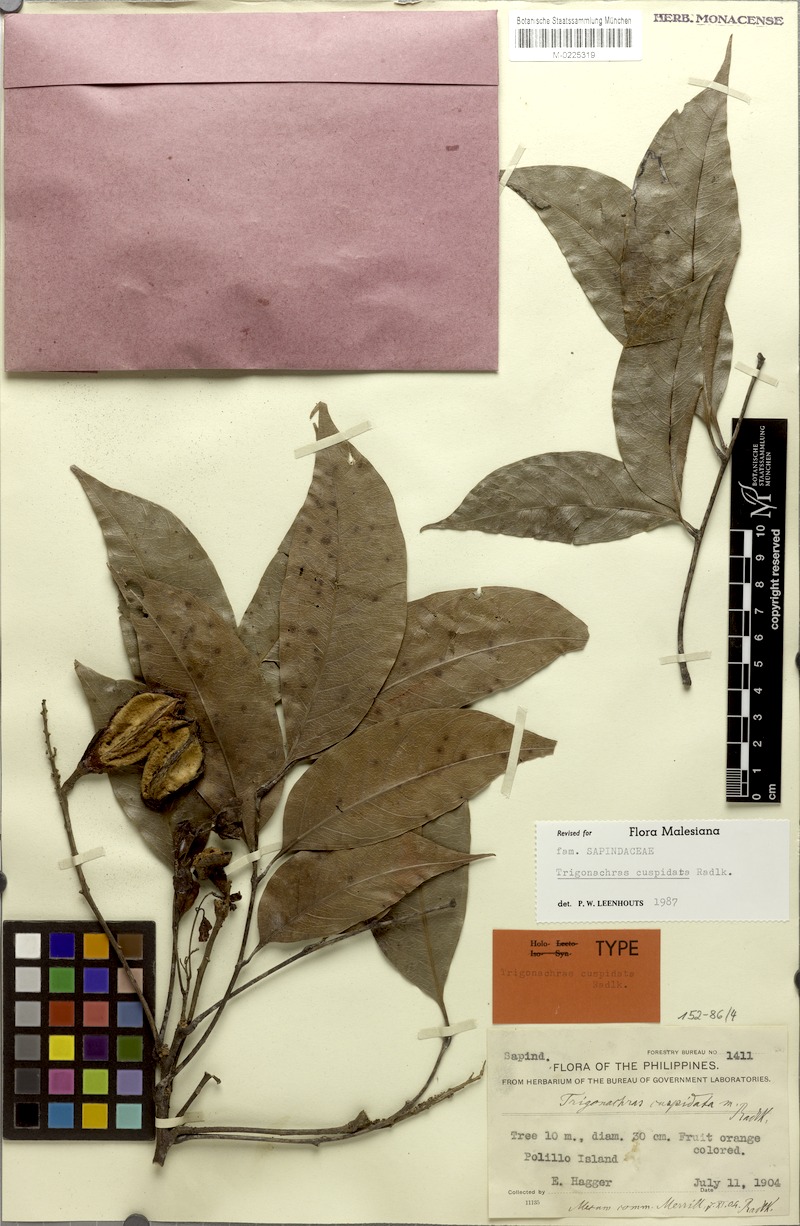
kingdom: Plantae
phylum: Tracheophyta
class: Magnoliopsida
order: Sapindales
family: Sapindaceae
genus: Trigonachras
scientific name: Trigonachras cuspidata
